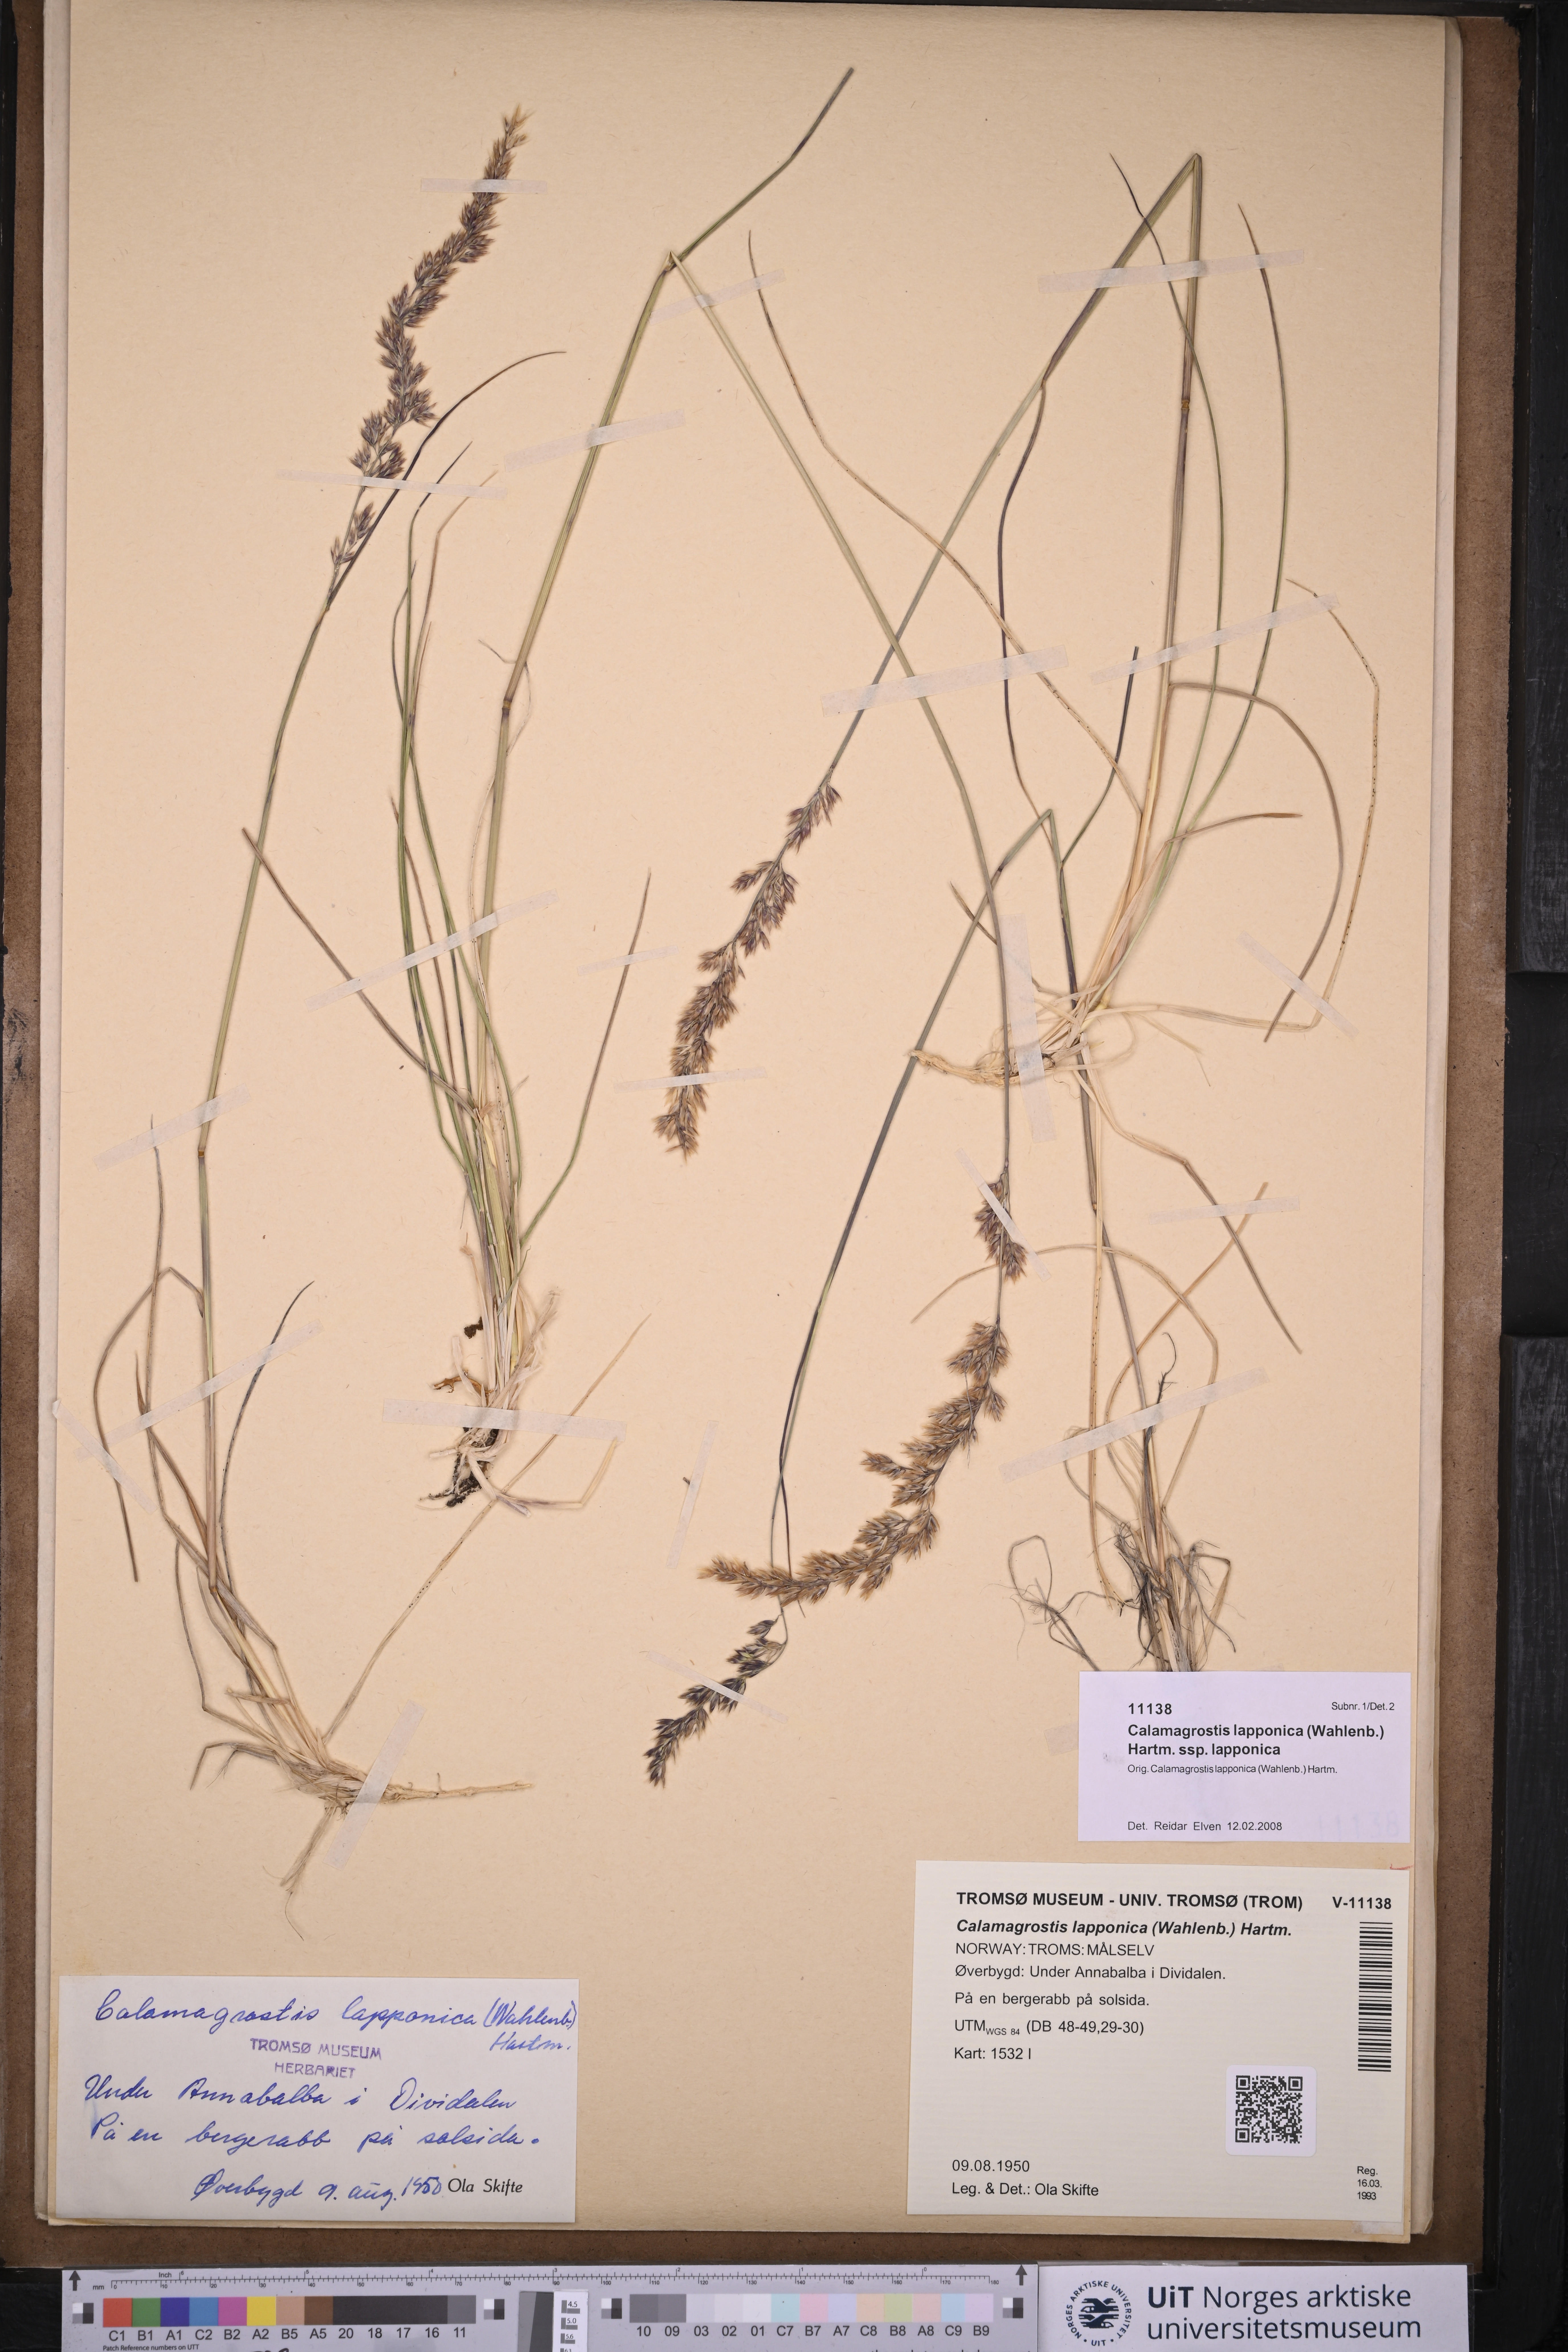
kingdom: Plantae
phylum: Tracheophyta
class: Liliopsida
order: Poales
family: Poaceae
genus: Calamagrostis
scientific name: Calamagrostis lapponica
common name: Lapland reedgrass
